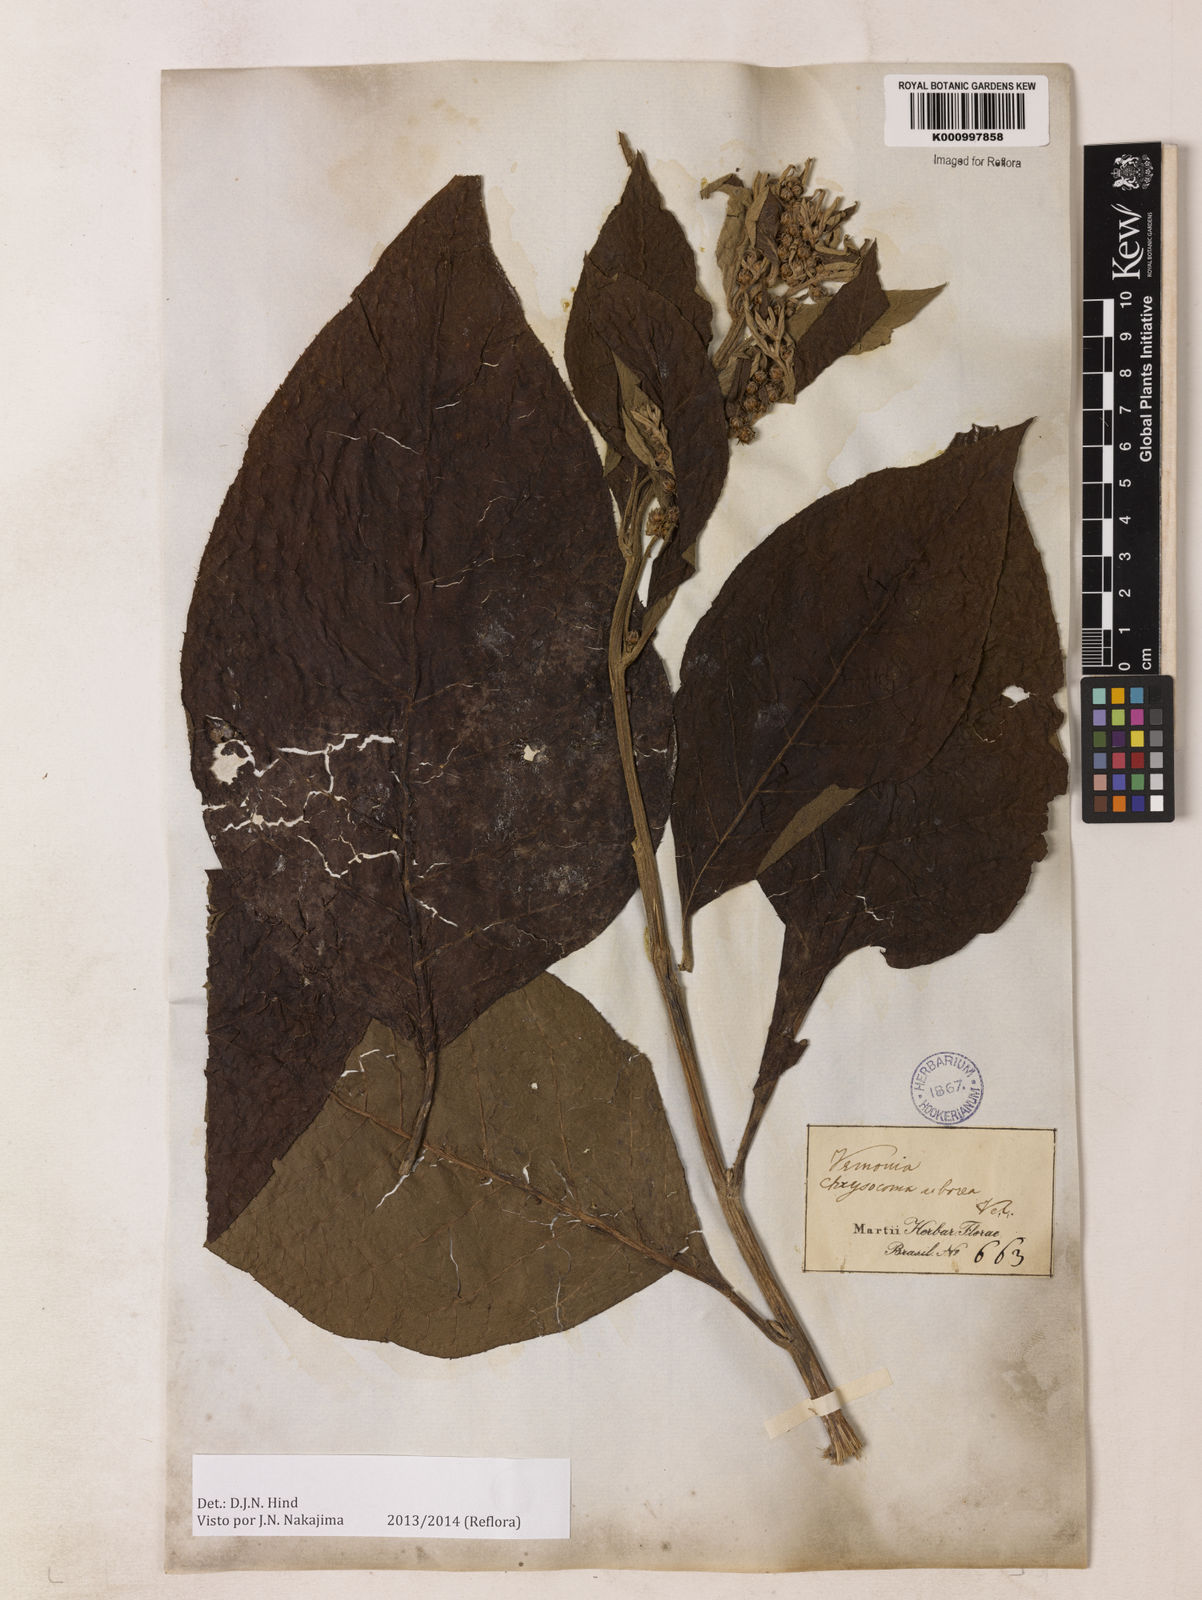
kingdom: Plantae
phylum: Tracheophyta
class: Magnoliopsida
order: Asterales
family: Asteraceae
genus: Lessingianthus
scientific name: Lessingianthus macrophyllus
